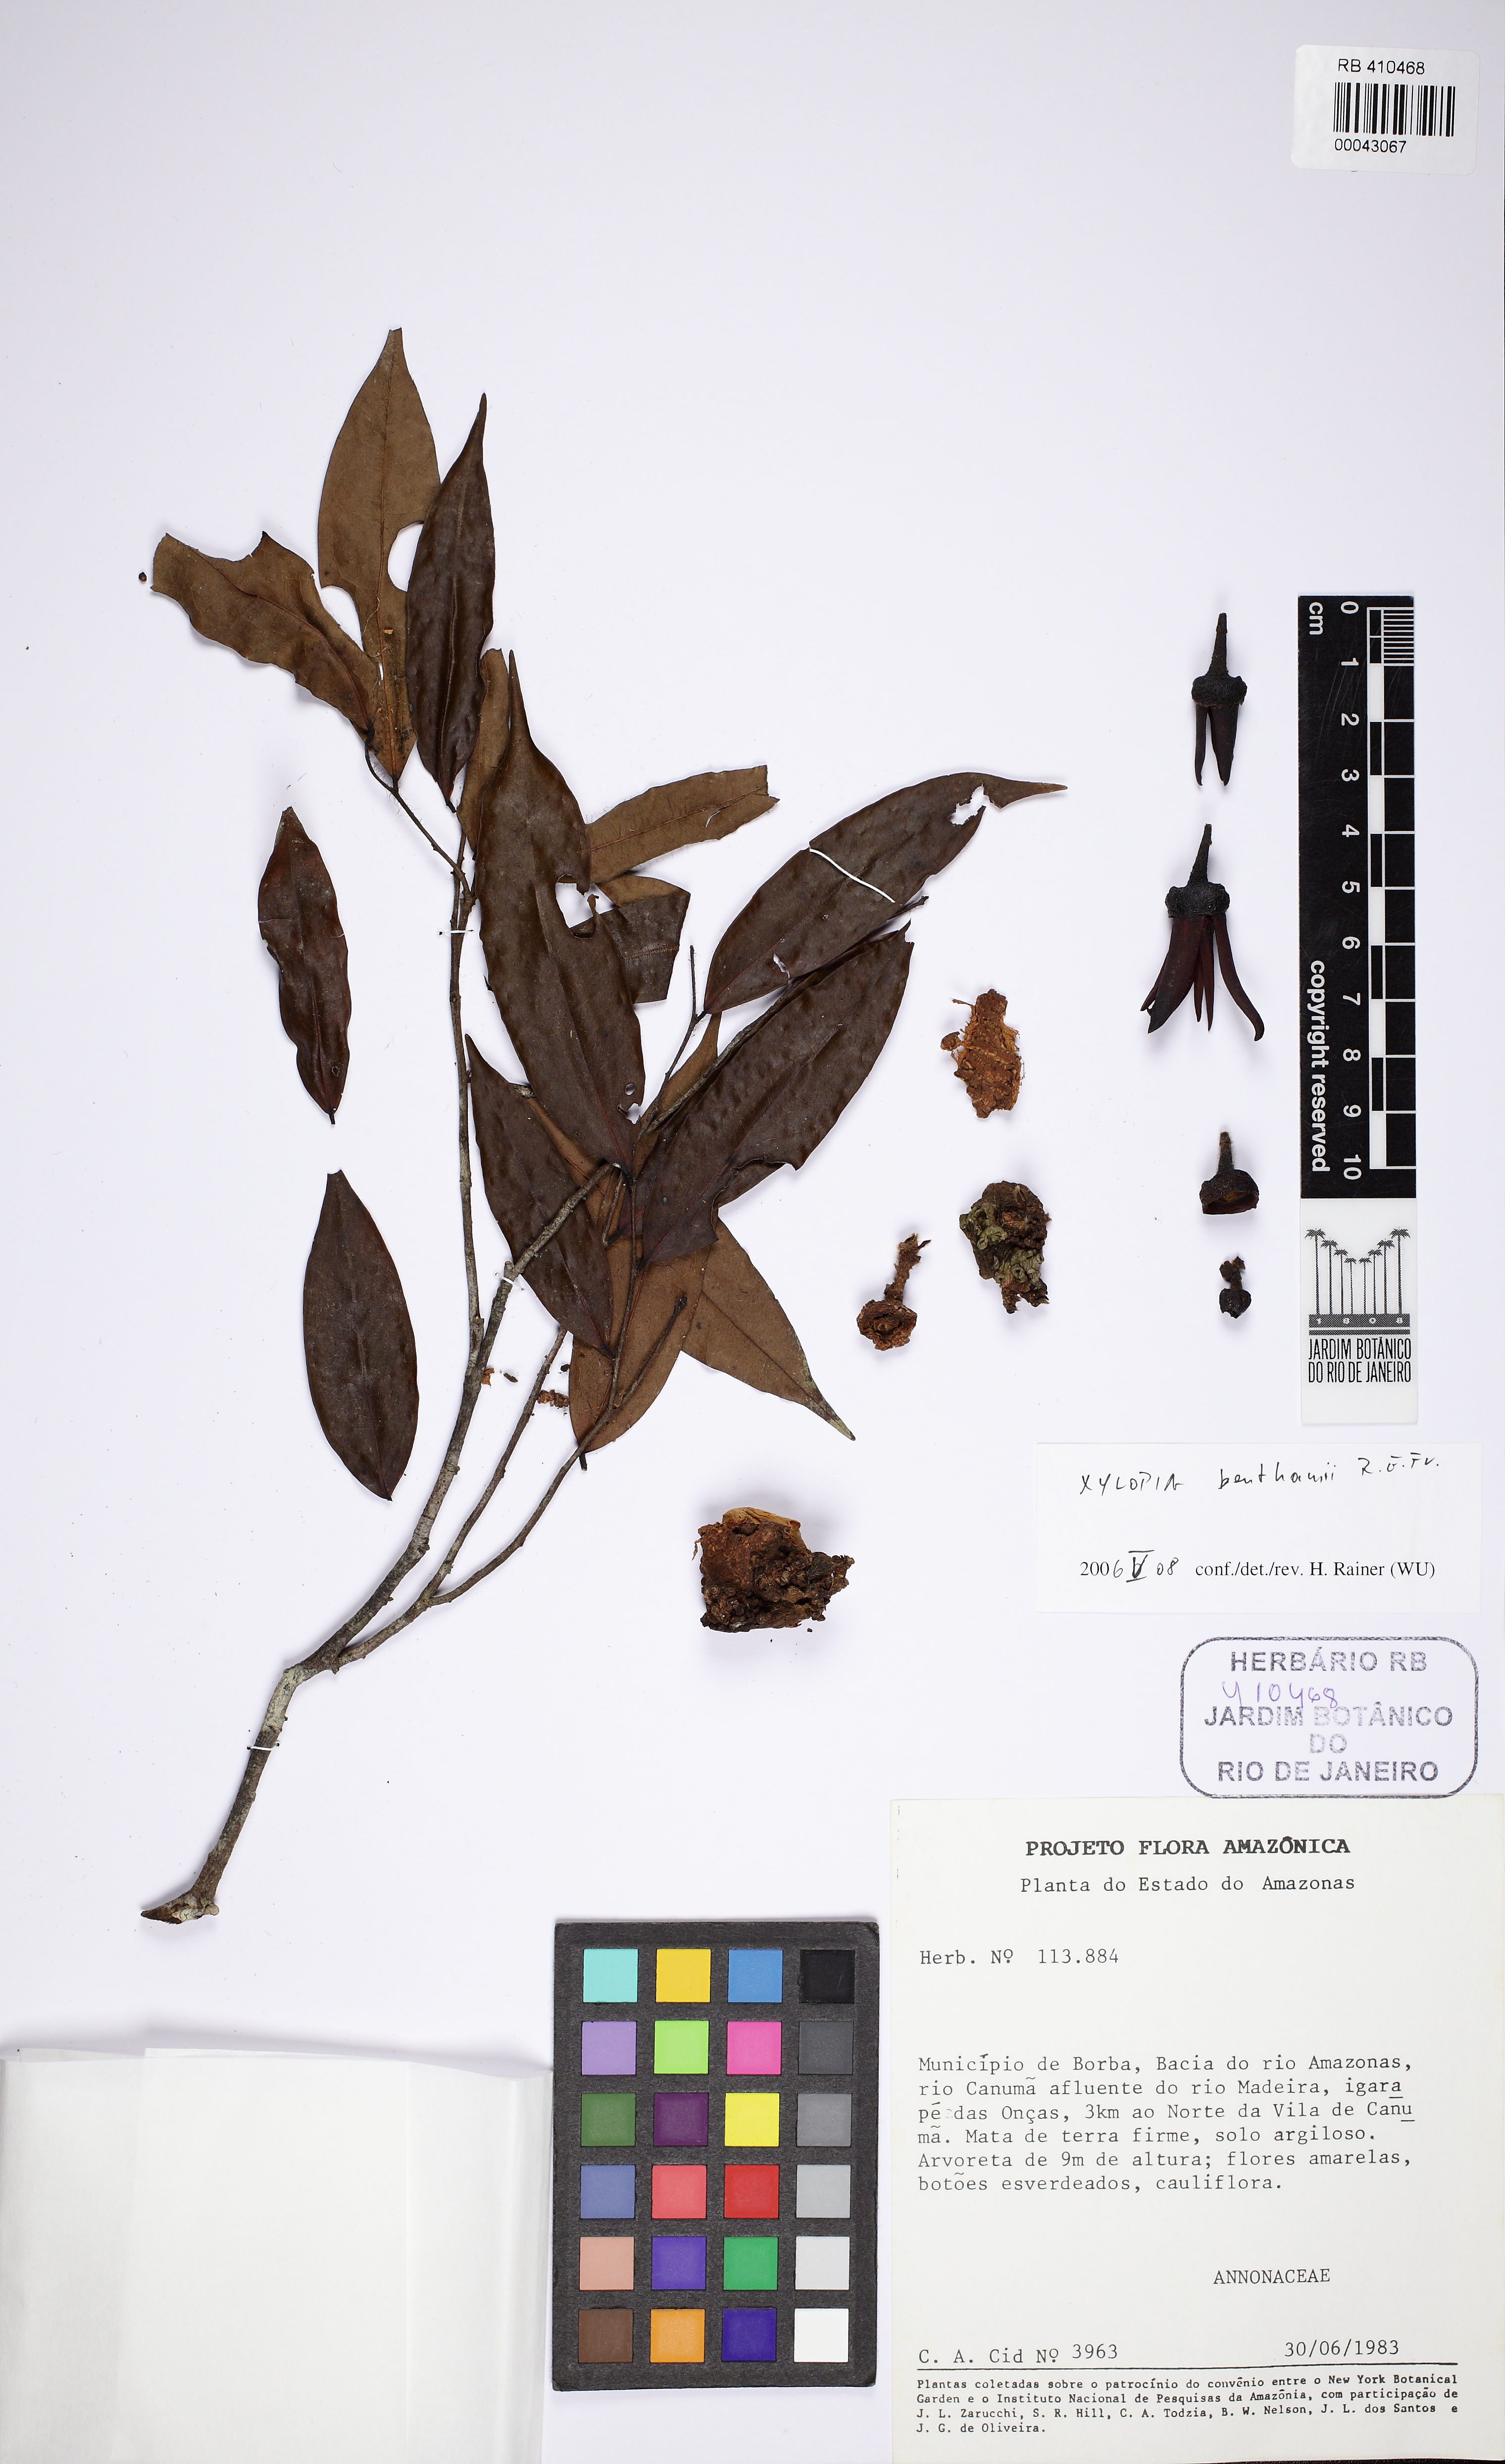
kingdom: Plantae
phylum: Tracheophyta
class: Magnoliopsida
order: Magnoliales
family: Annonaceae
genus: Xylopia
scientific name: Xylopia
